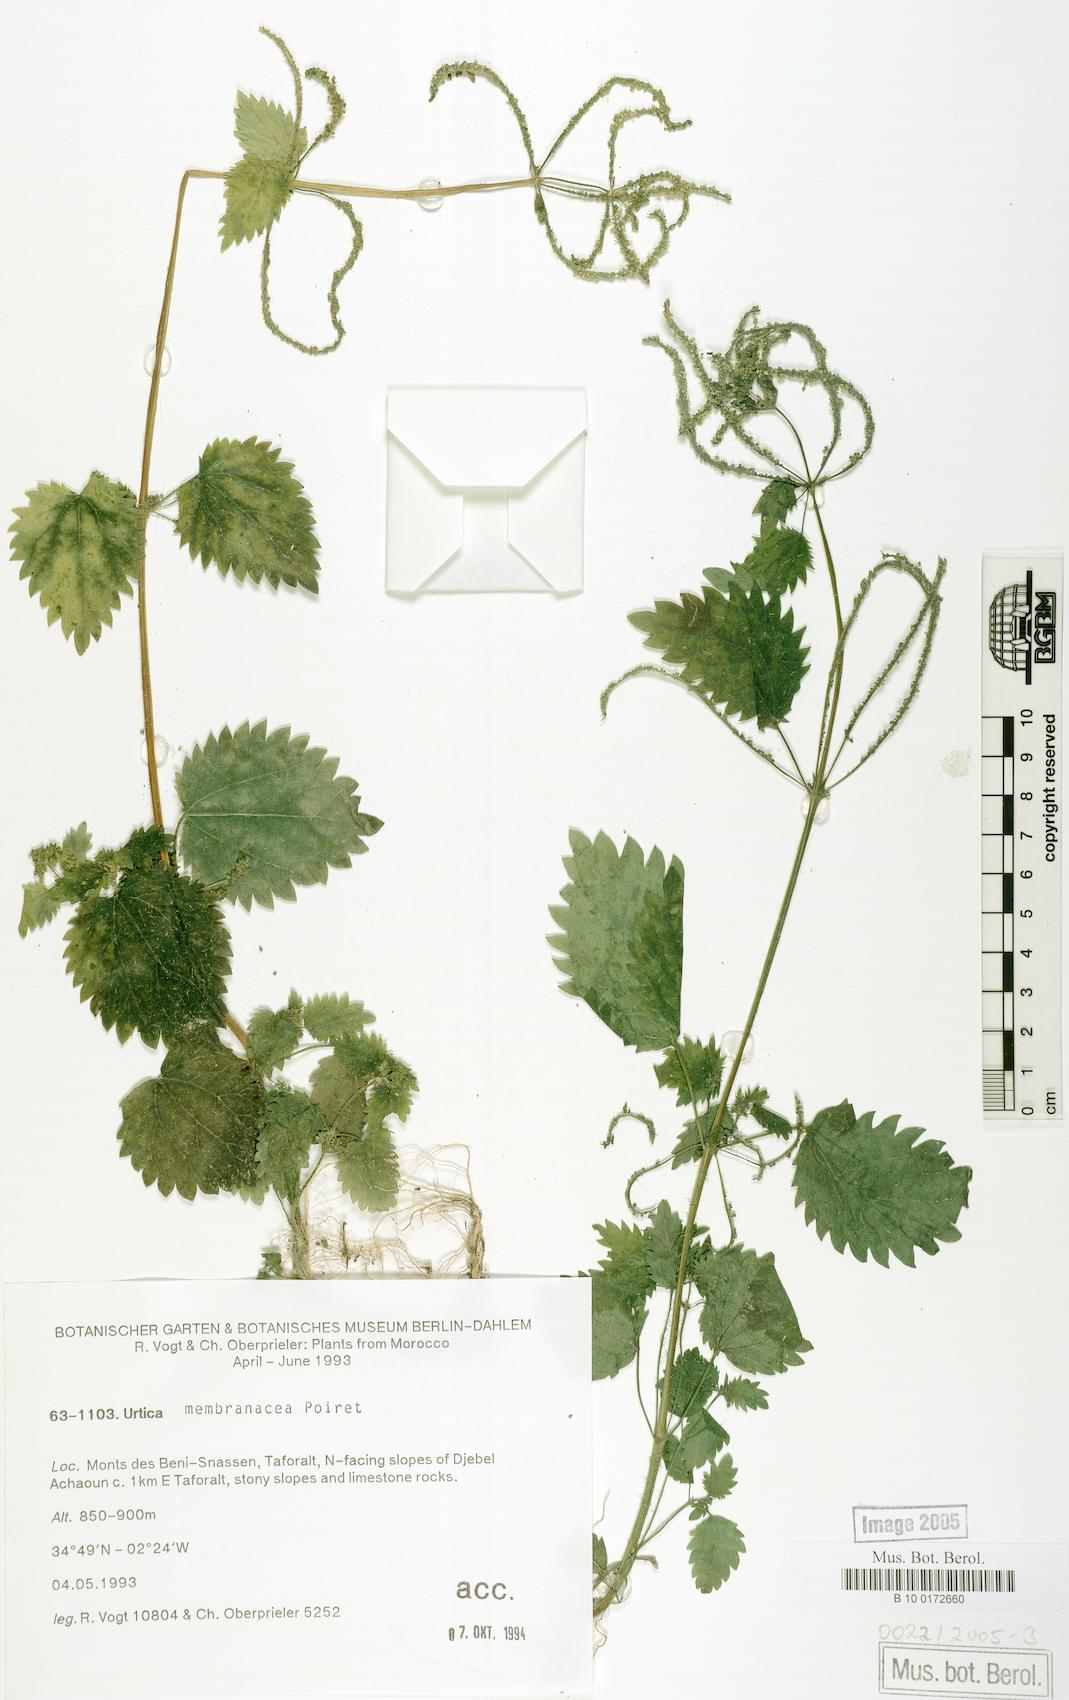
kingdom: Plantae
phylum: Tracheophyta
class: Magnoliopsida
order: Rosales
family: Urticaceae
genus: Urtica
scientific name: Urtica membranacea
